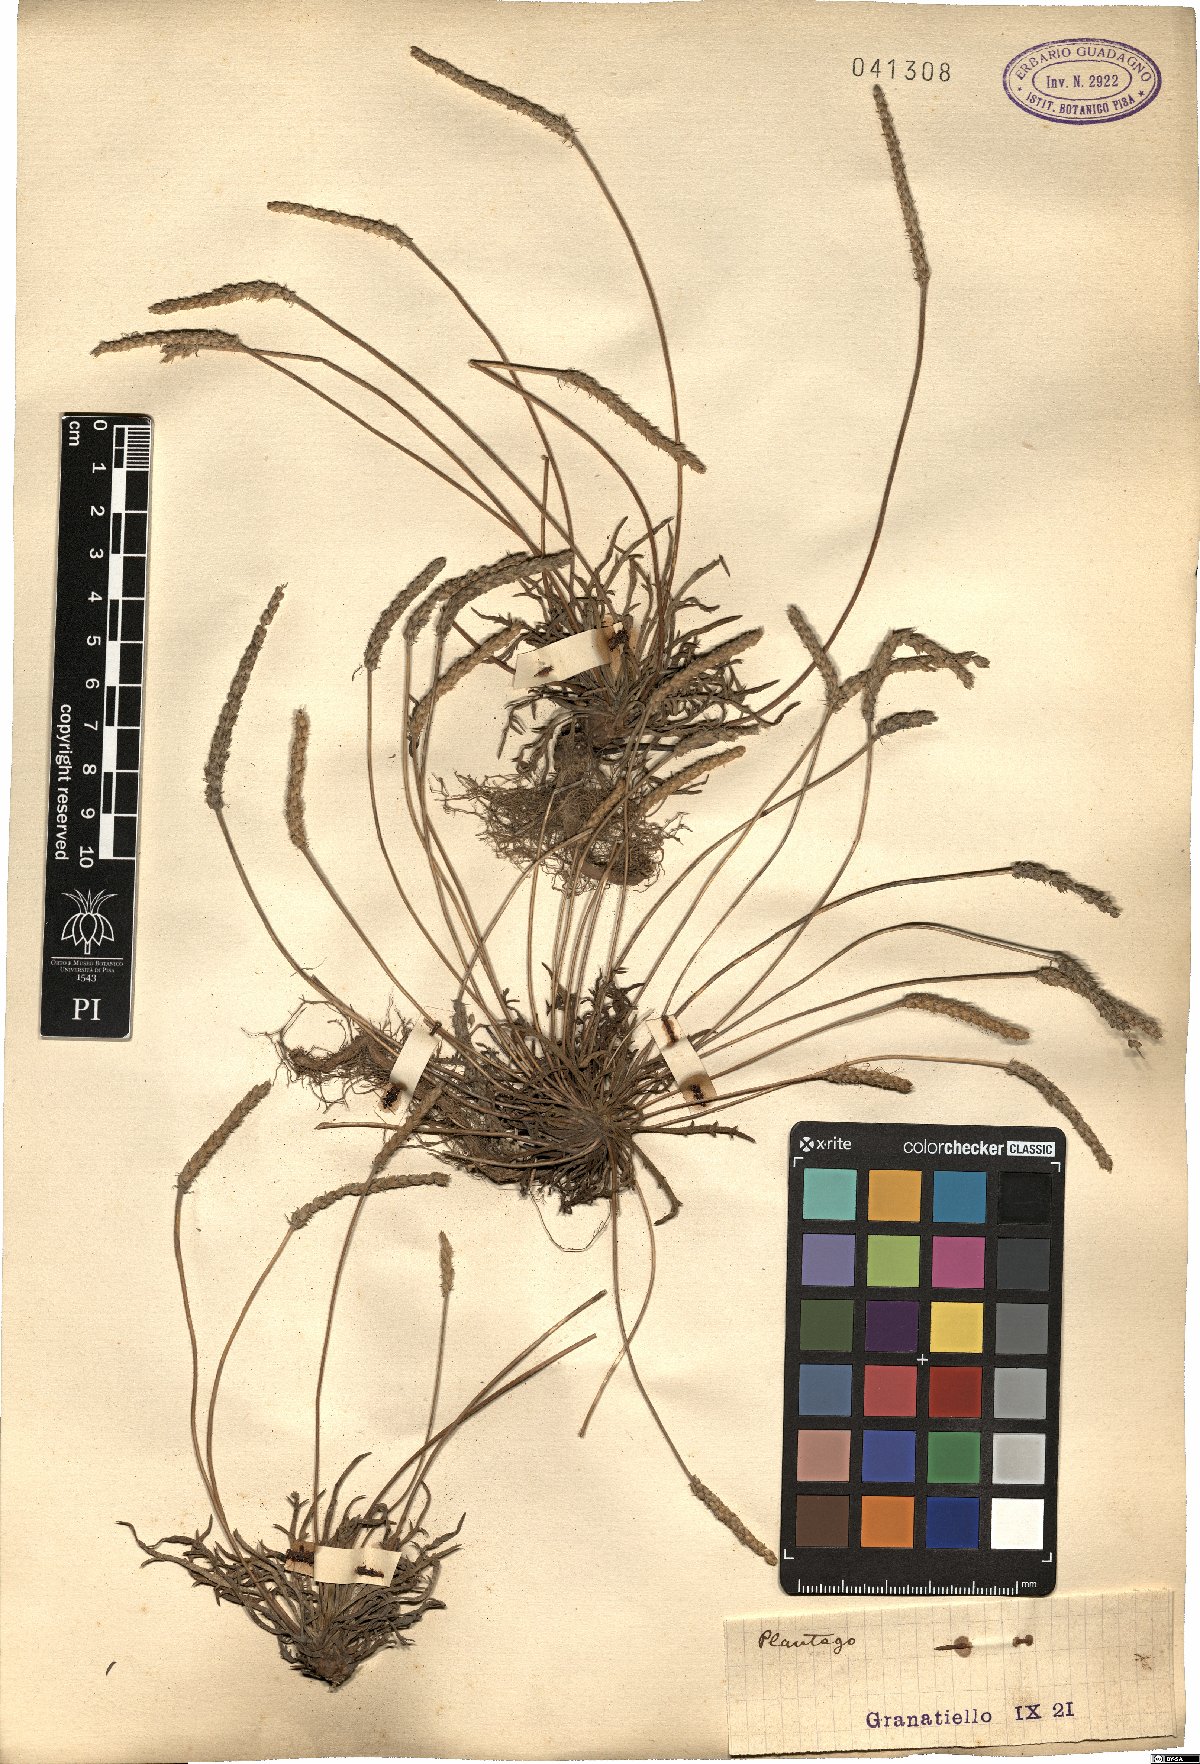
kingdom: Plantae
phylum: Tracheophyta
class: Magnoliopsida
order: Lamiales
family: Plantaginaceae
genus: Plantago
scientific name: Plantago
